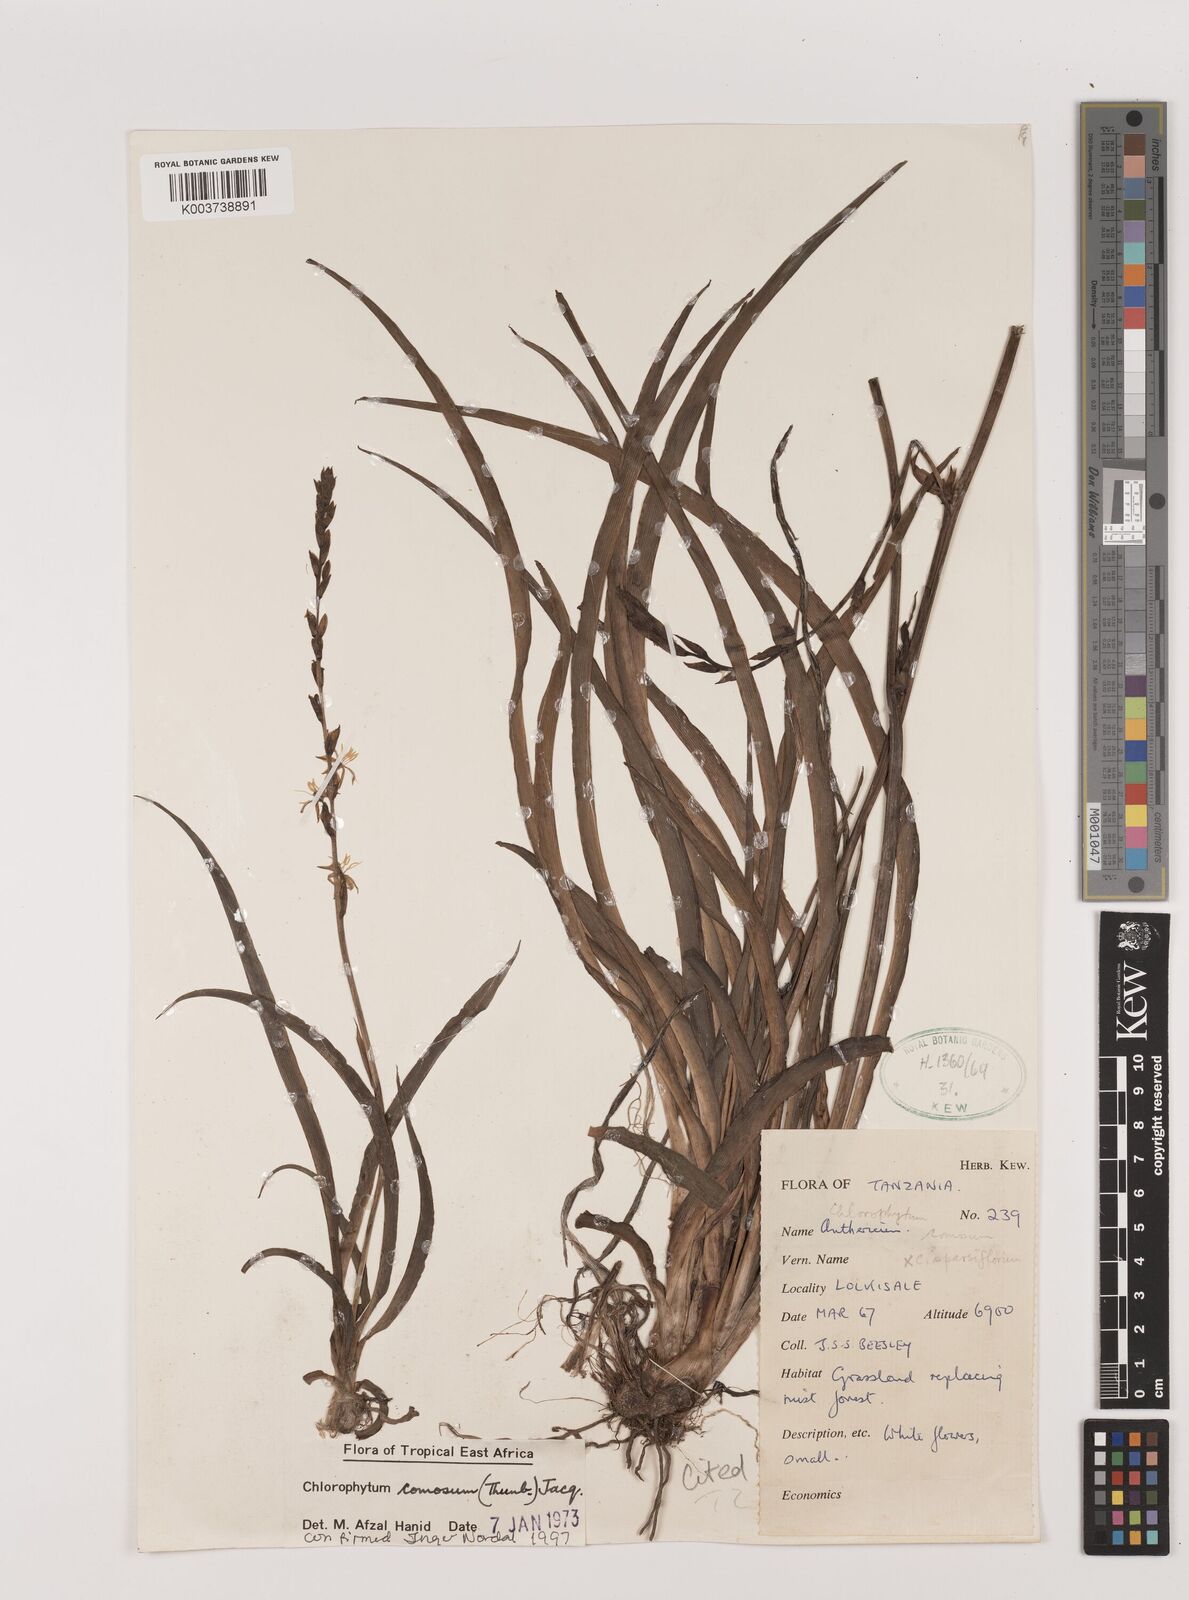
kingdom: Plantae
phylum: Tracheophyta
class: Liliopsida
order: Asparagales
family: Asparagaceae
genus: Chlorophytum
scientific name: Chlorophytum comosum
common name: Spider plant
